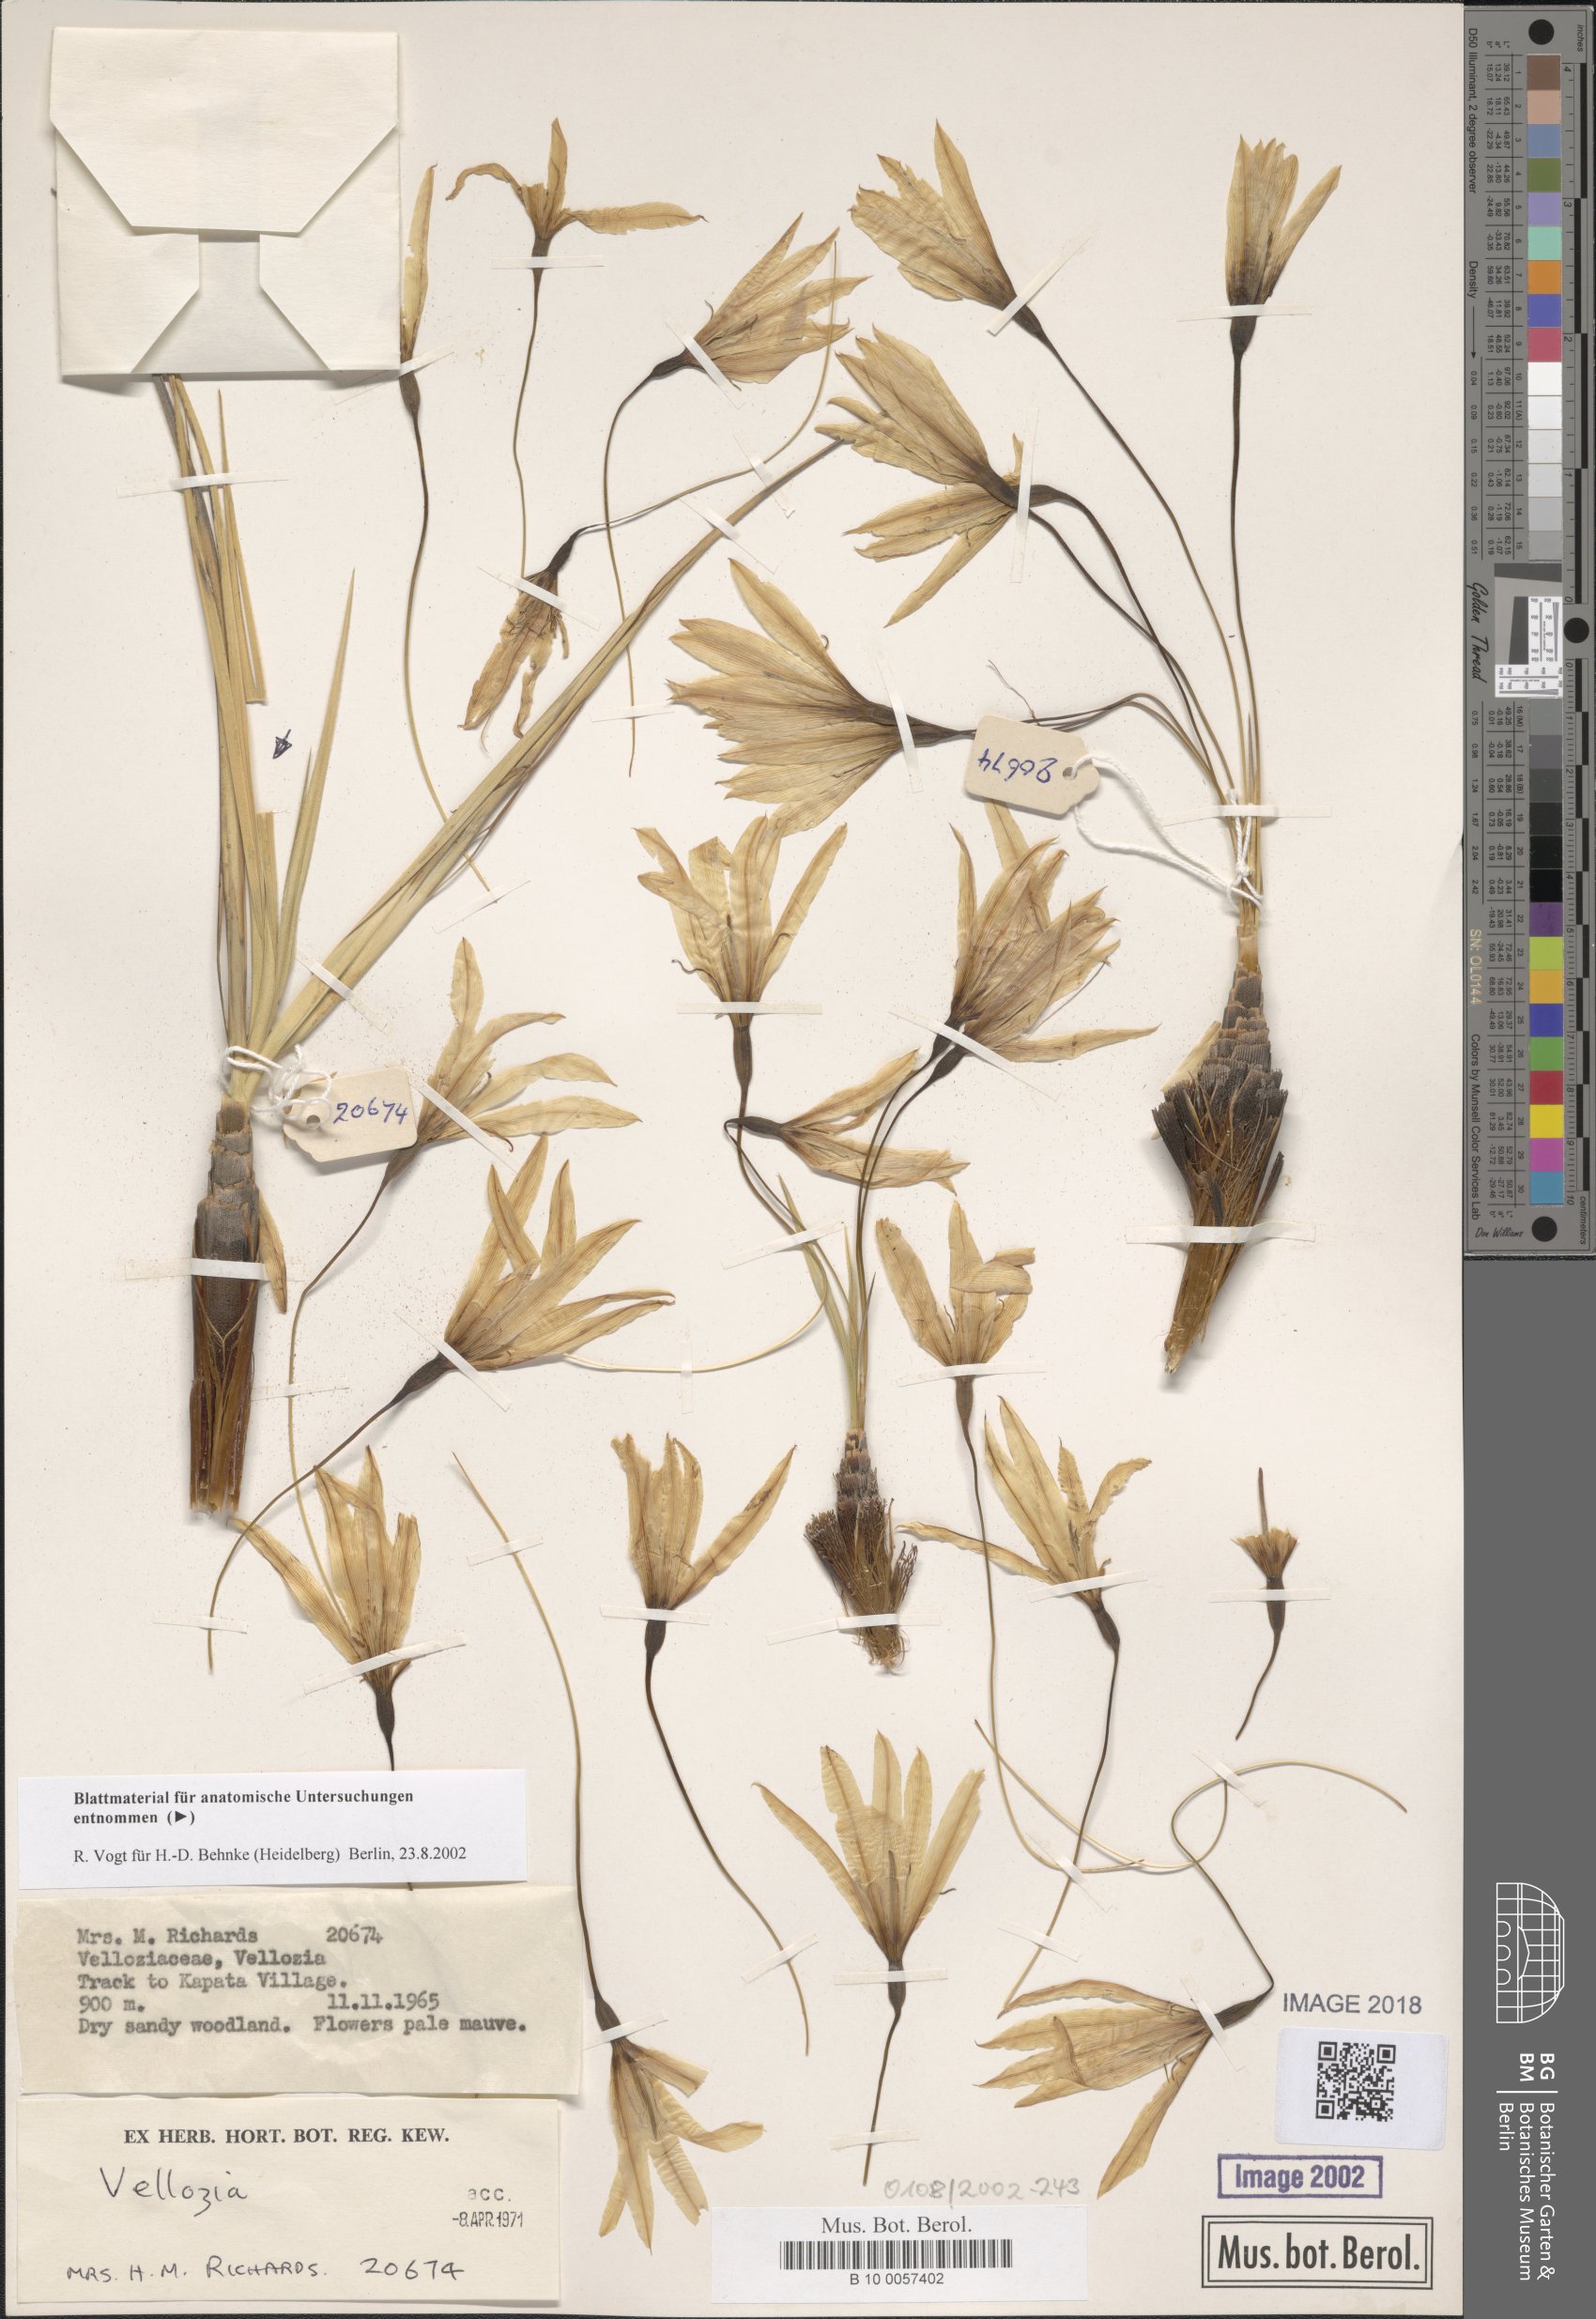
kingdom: Plantae
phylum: Tracheophyta
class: Liliopsida
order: Pandanales
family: Velloziaceae
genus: Xerophyta
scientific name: Xerophyta
